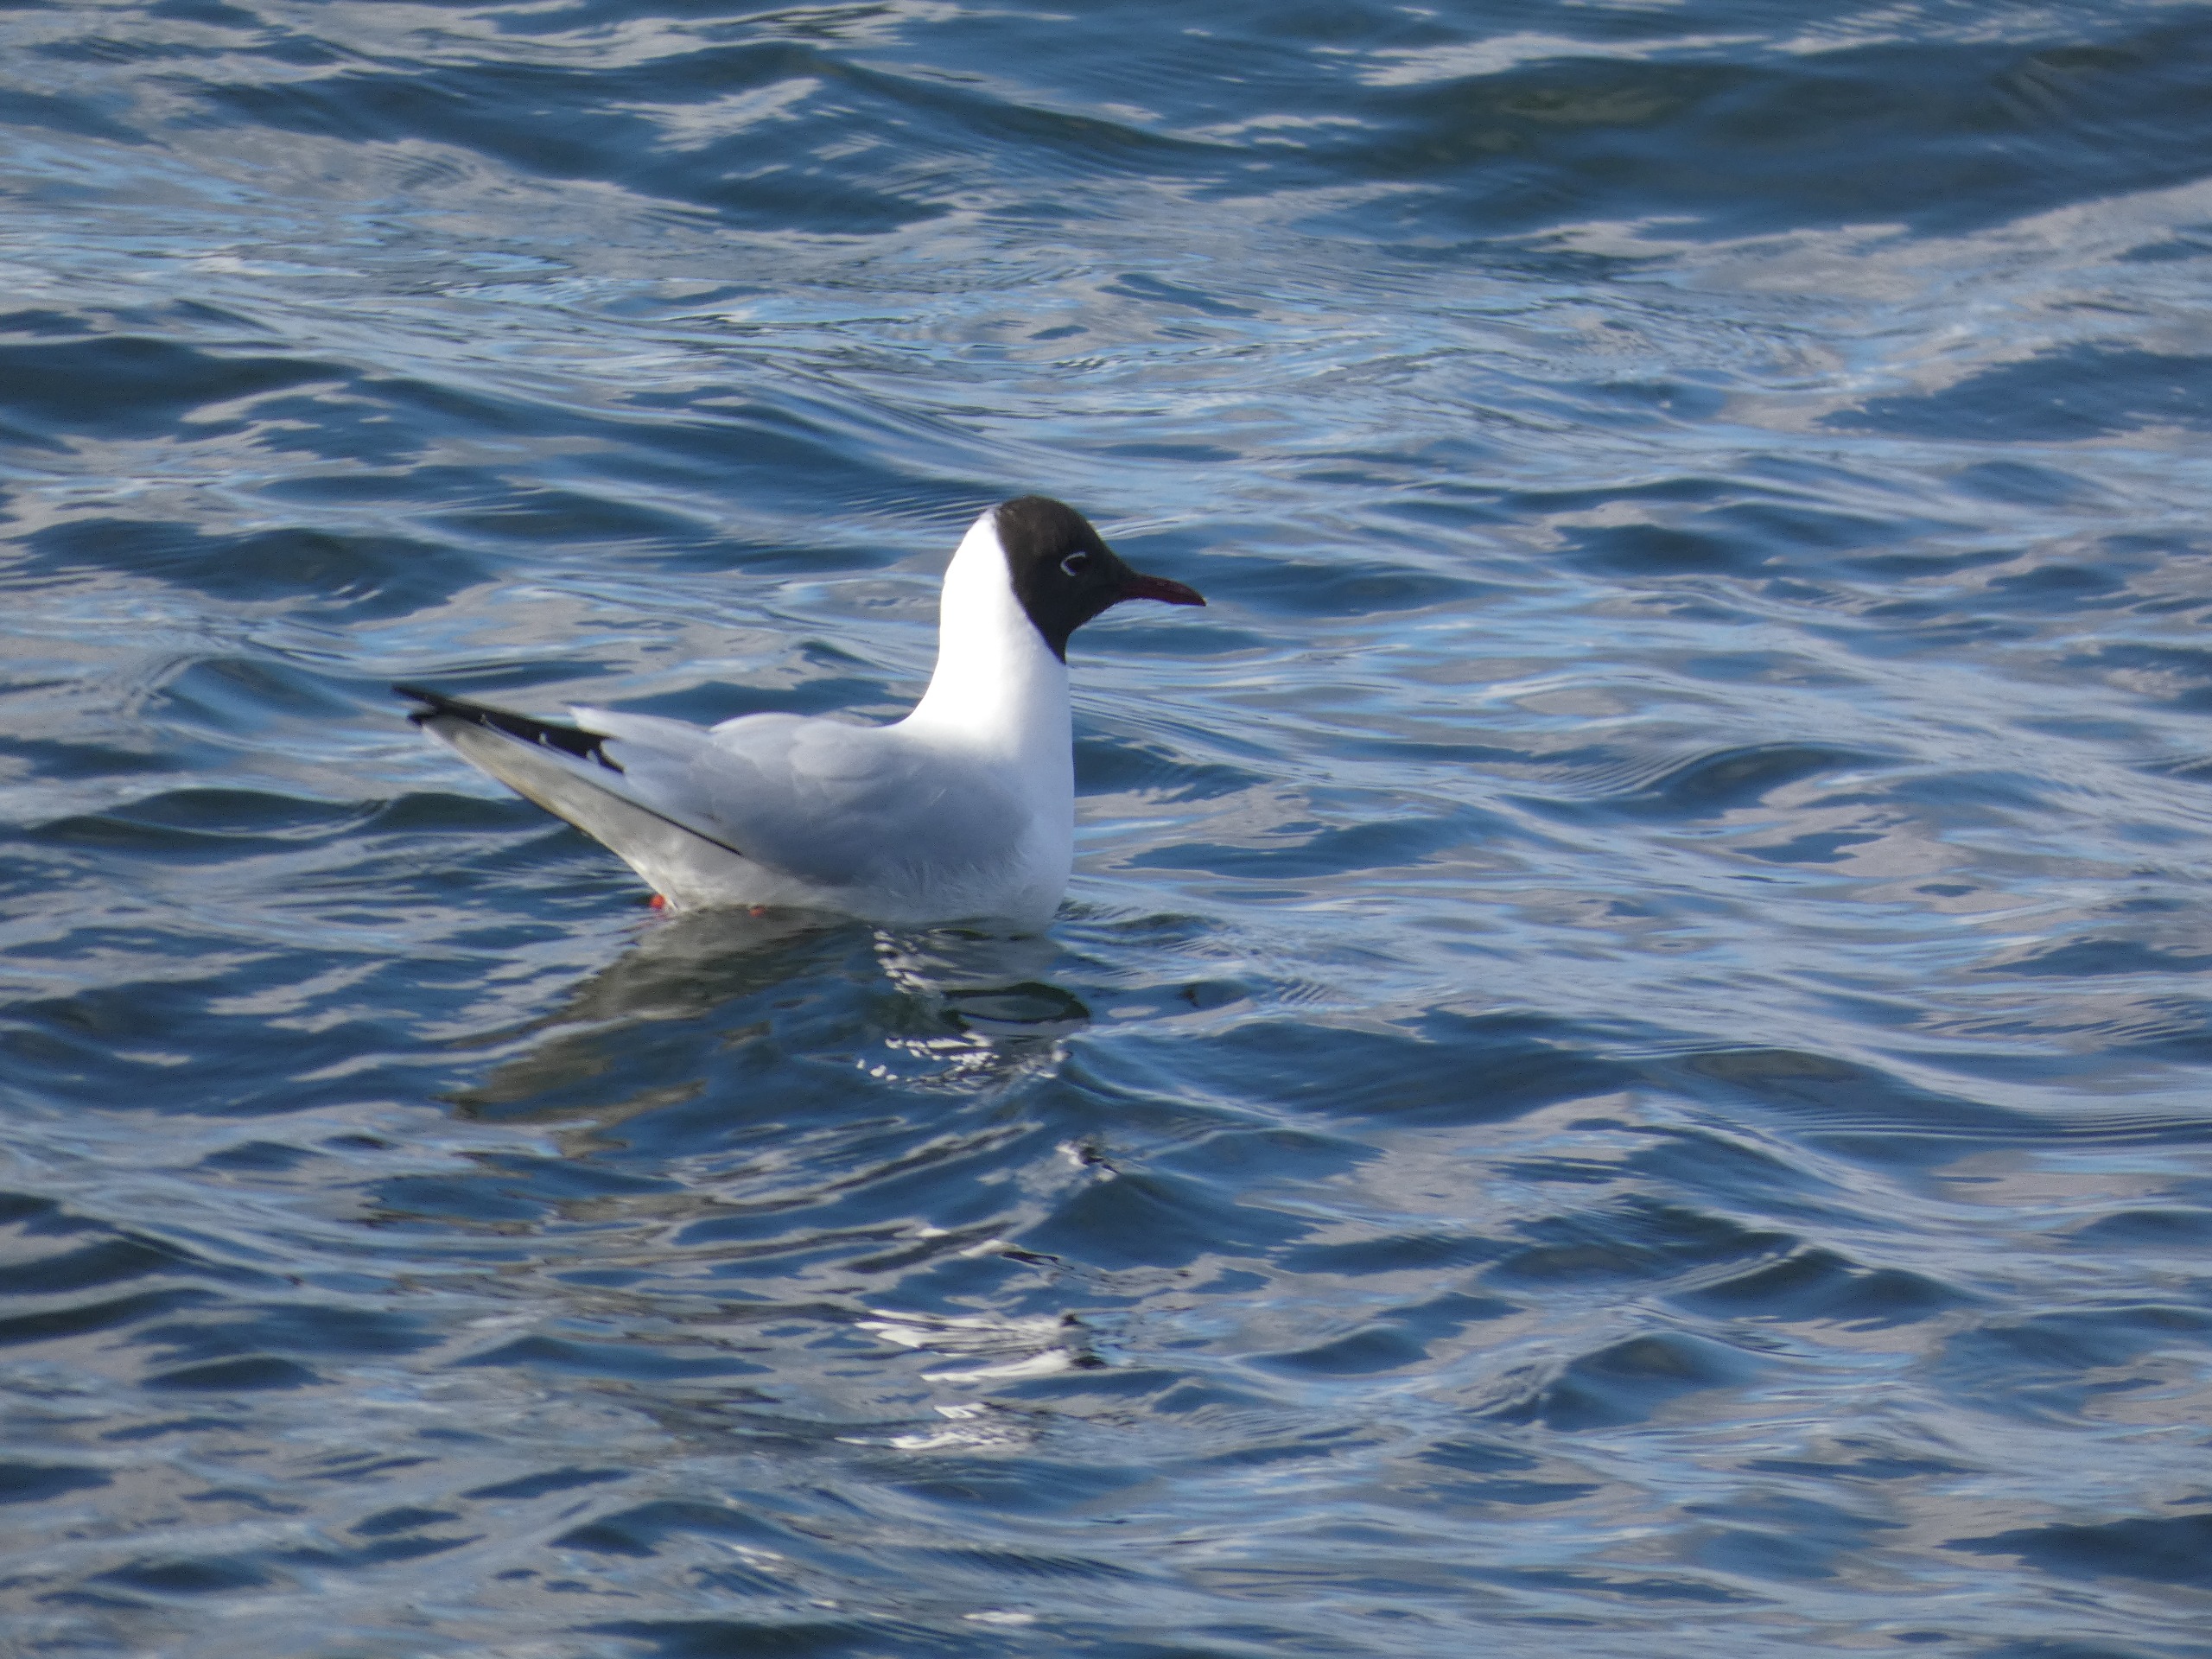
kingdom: Animalia
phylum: Chordata
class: Aves
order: Charadriiformes
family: Laridae
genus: Chroicocephalus
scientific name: Chroicocephalus ridibundus
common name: Hættemåge
